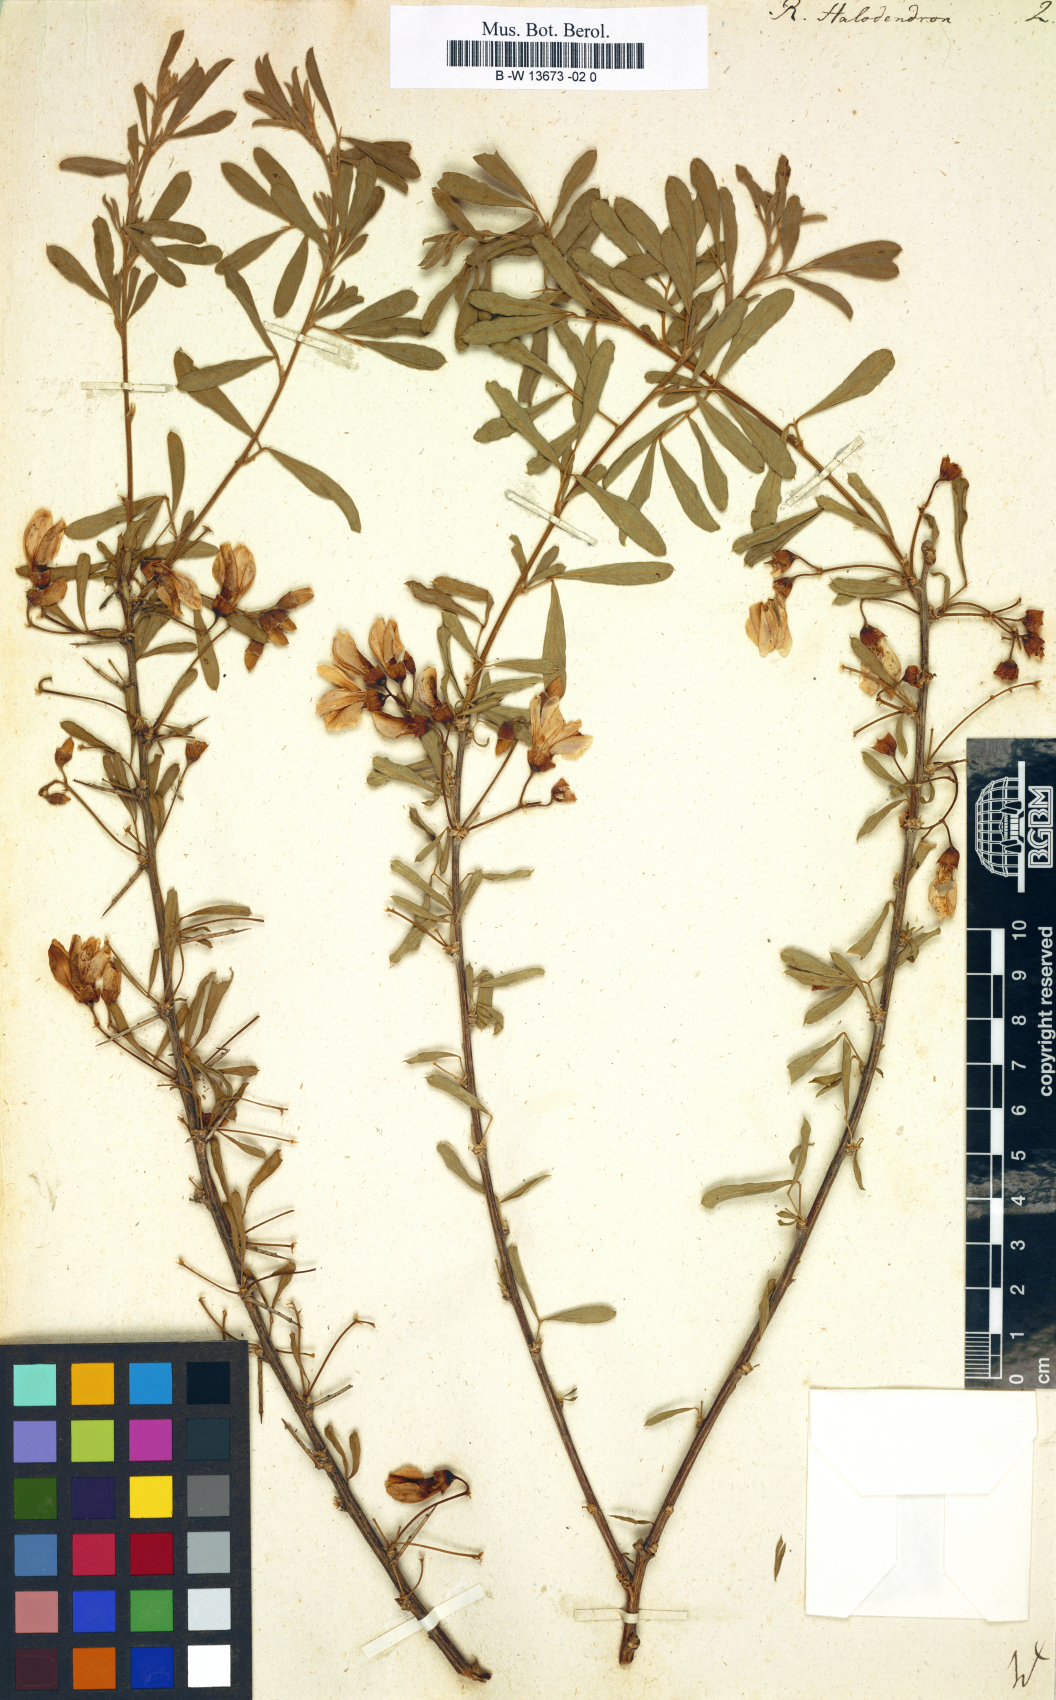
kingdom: Plantae
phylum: Tracheophyta
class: Magnoliopsida
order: Fabales
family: Fabaceae
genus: Caragana
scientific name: Caragana halodendron
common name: Siberian salt-tree
